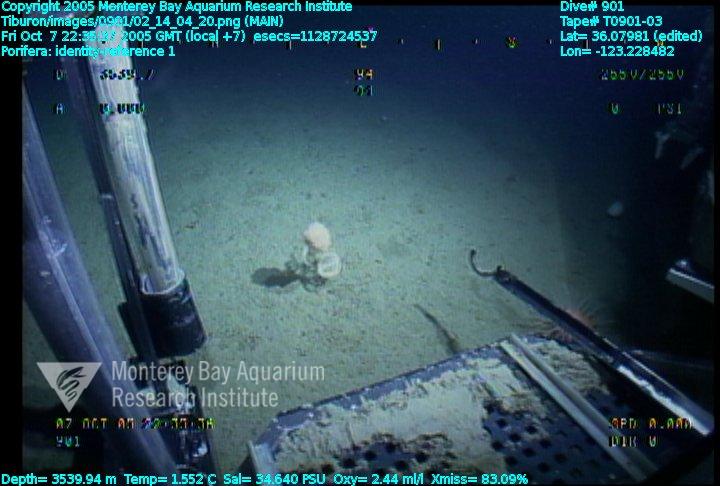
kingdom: Animalia
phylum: Porifera
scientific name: Porifera
